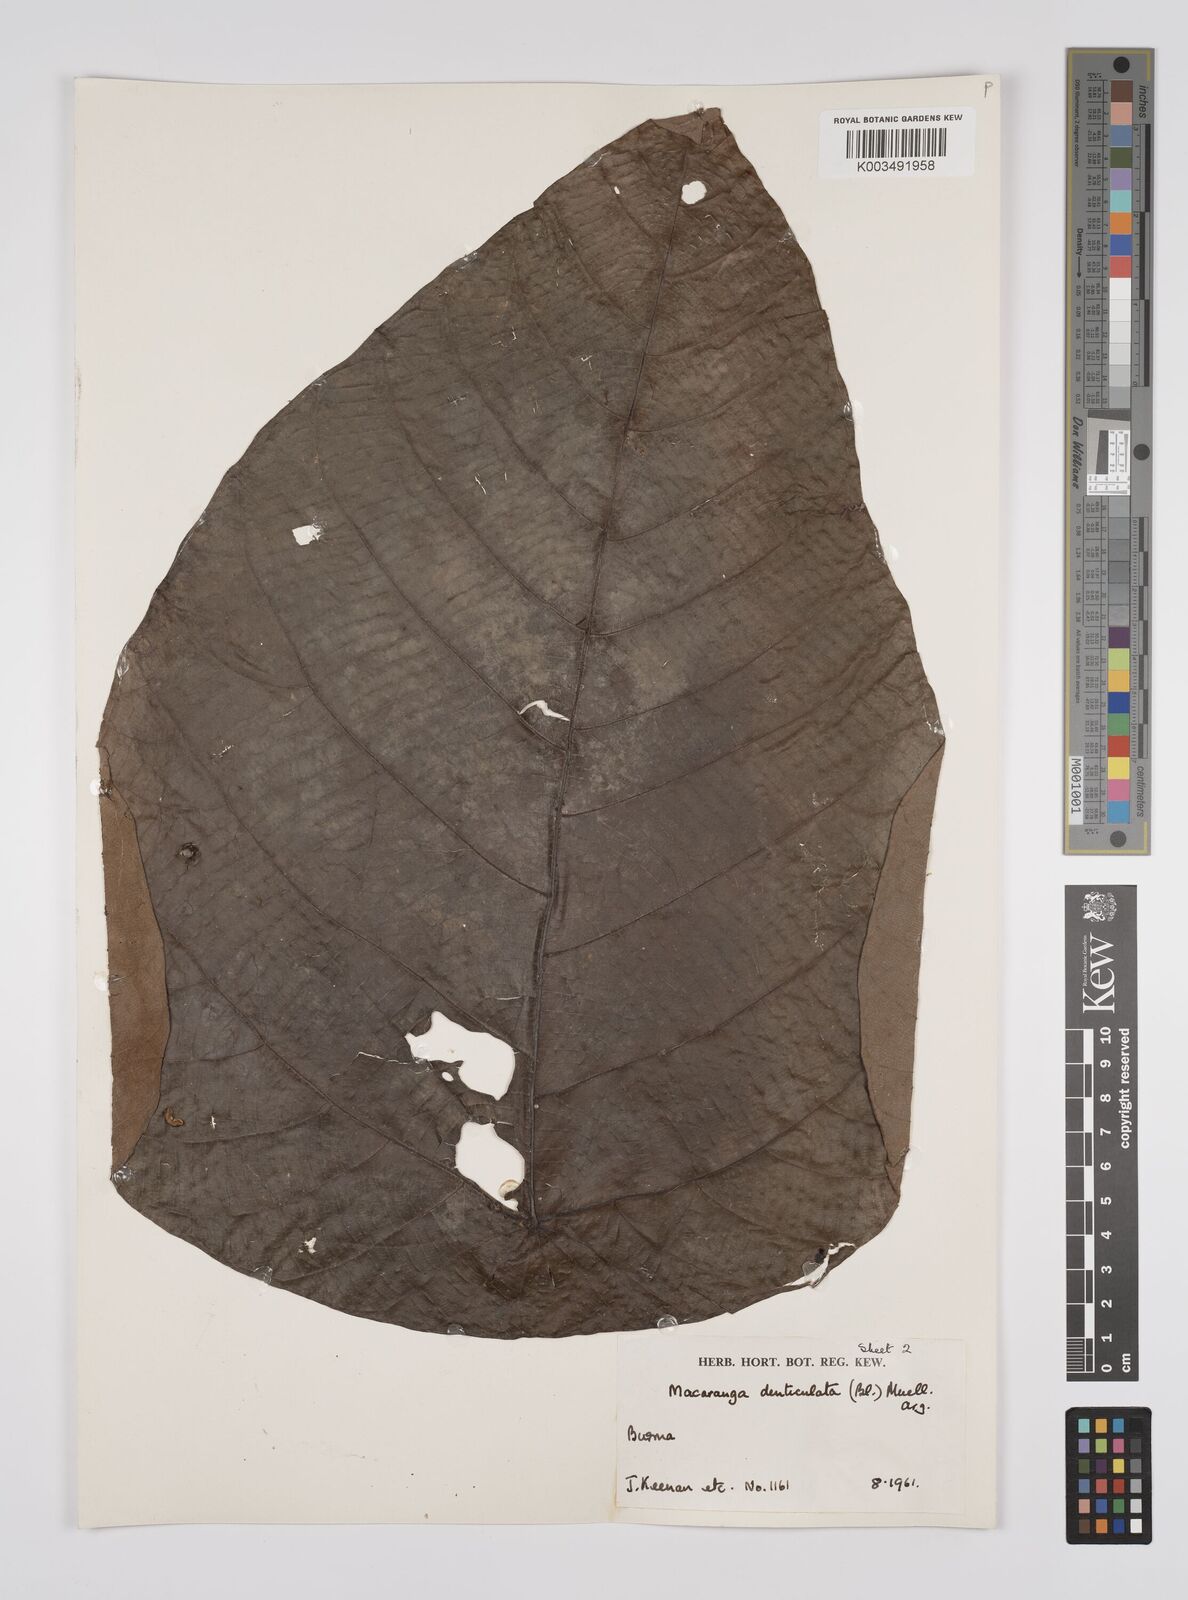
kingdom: Plantae
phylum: Tracheophyta
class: Magnoliopsida
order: Malpighiales
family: Euphorbiaceae
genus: Macaranga
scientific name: Macaranga denticulata
